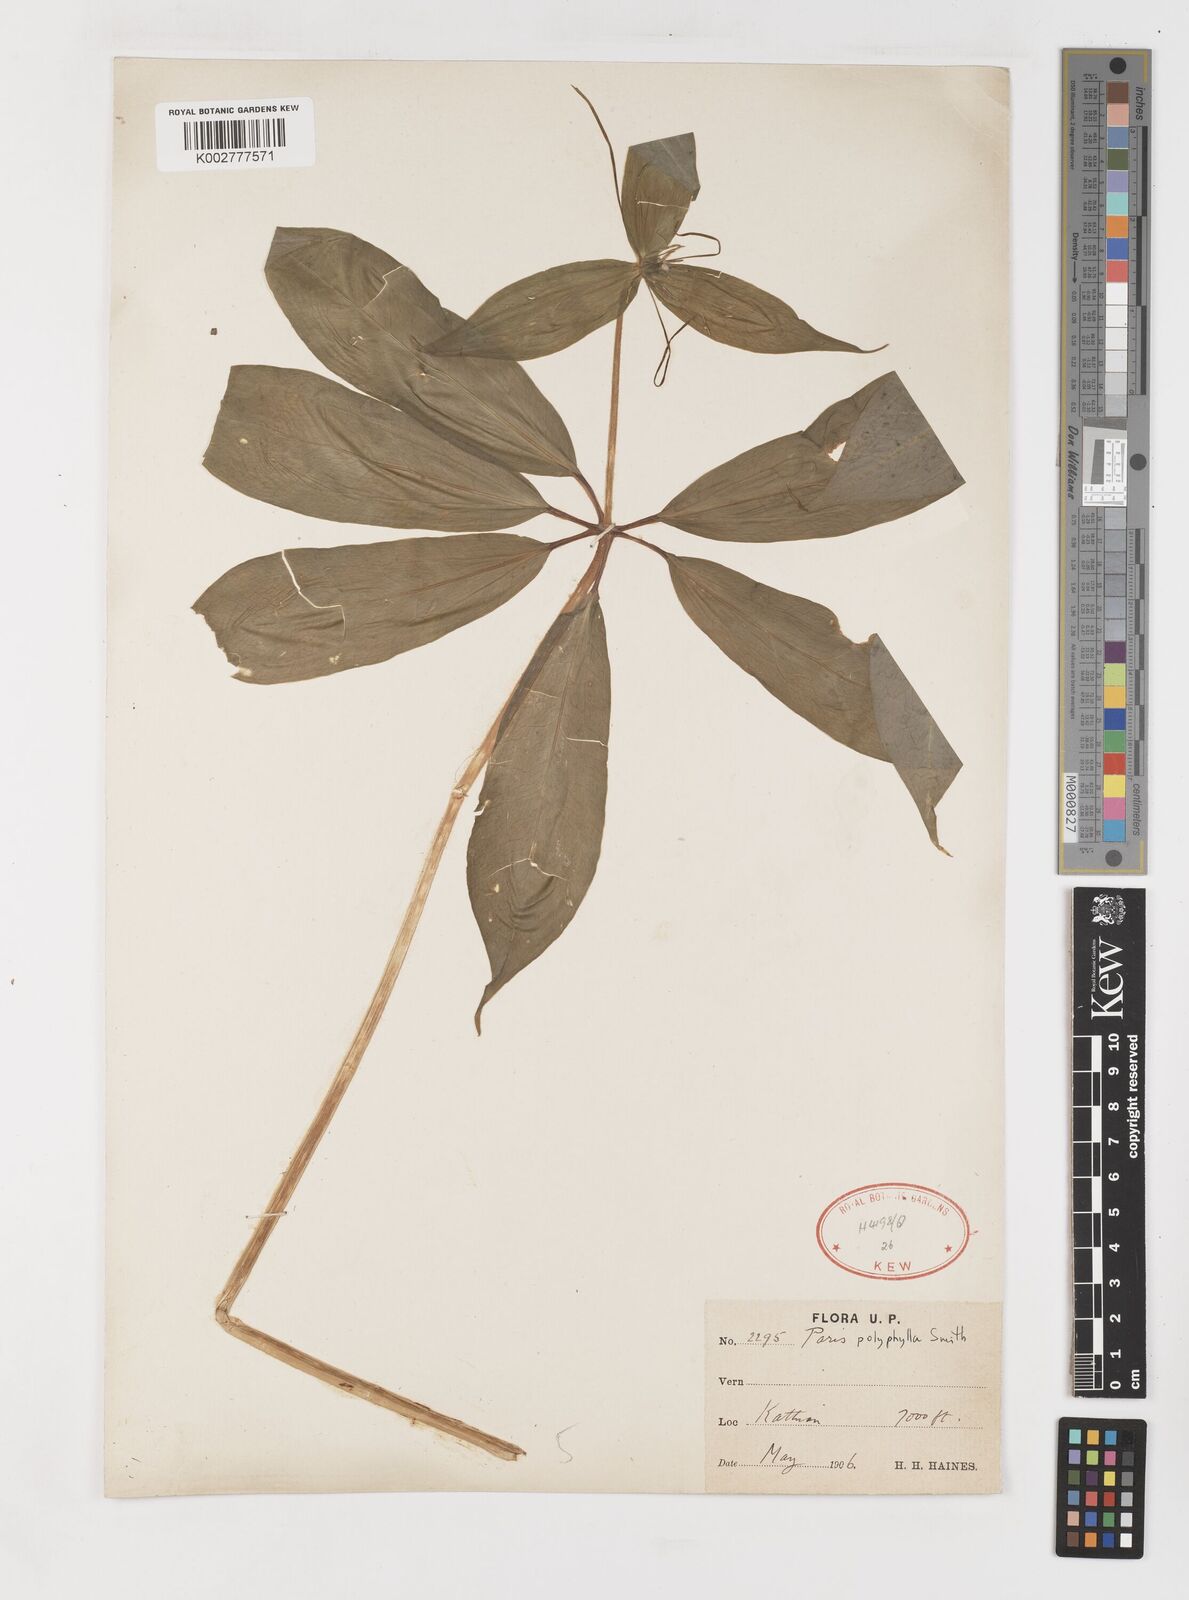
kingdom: Plantae
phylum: Tracheophyta
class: Liliopsida
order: Liliales
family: Melanthiaceae
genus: Paris
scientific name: Paris polyphylla
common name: Love apple
